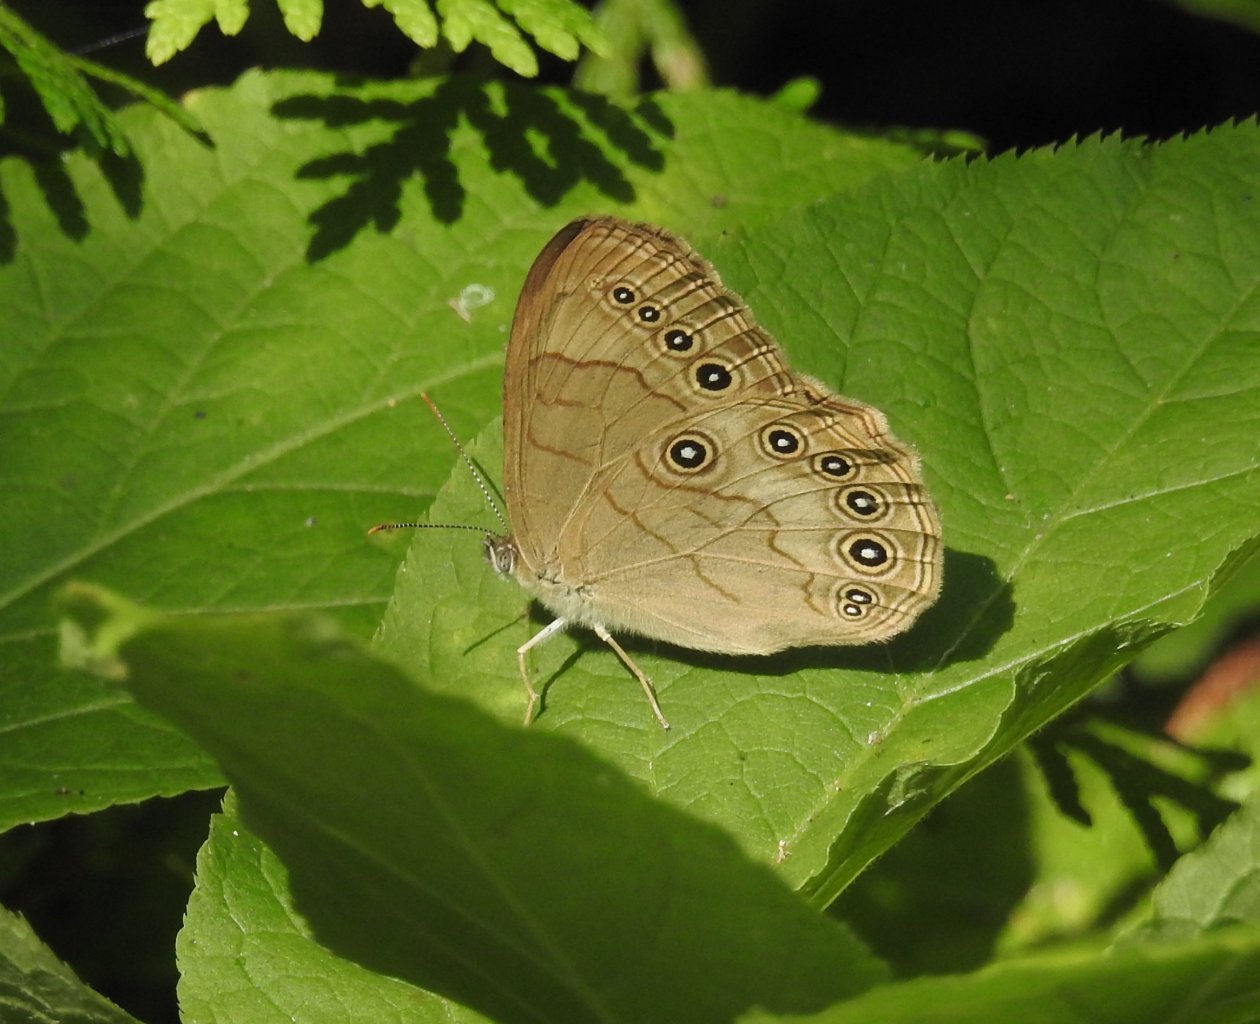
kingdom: Animalia
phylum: Arthropoda
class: Insecta
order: Lepidoptera
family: Nymphalidae
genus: Lethe
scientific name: Lethe eurydice
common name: Appalachian Eyed Brown
